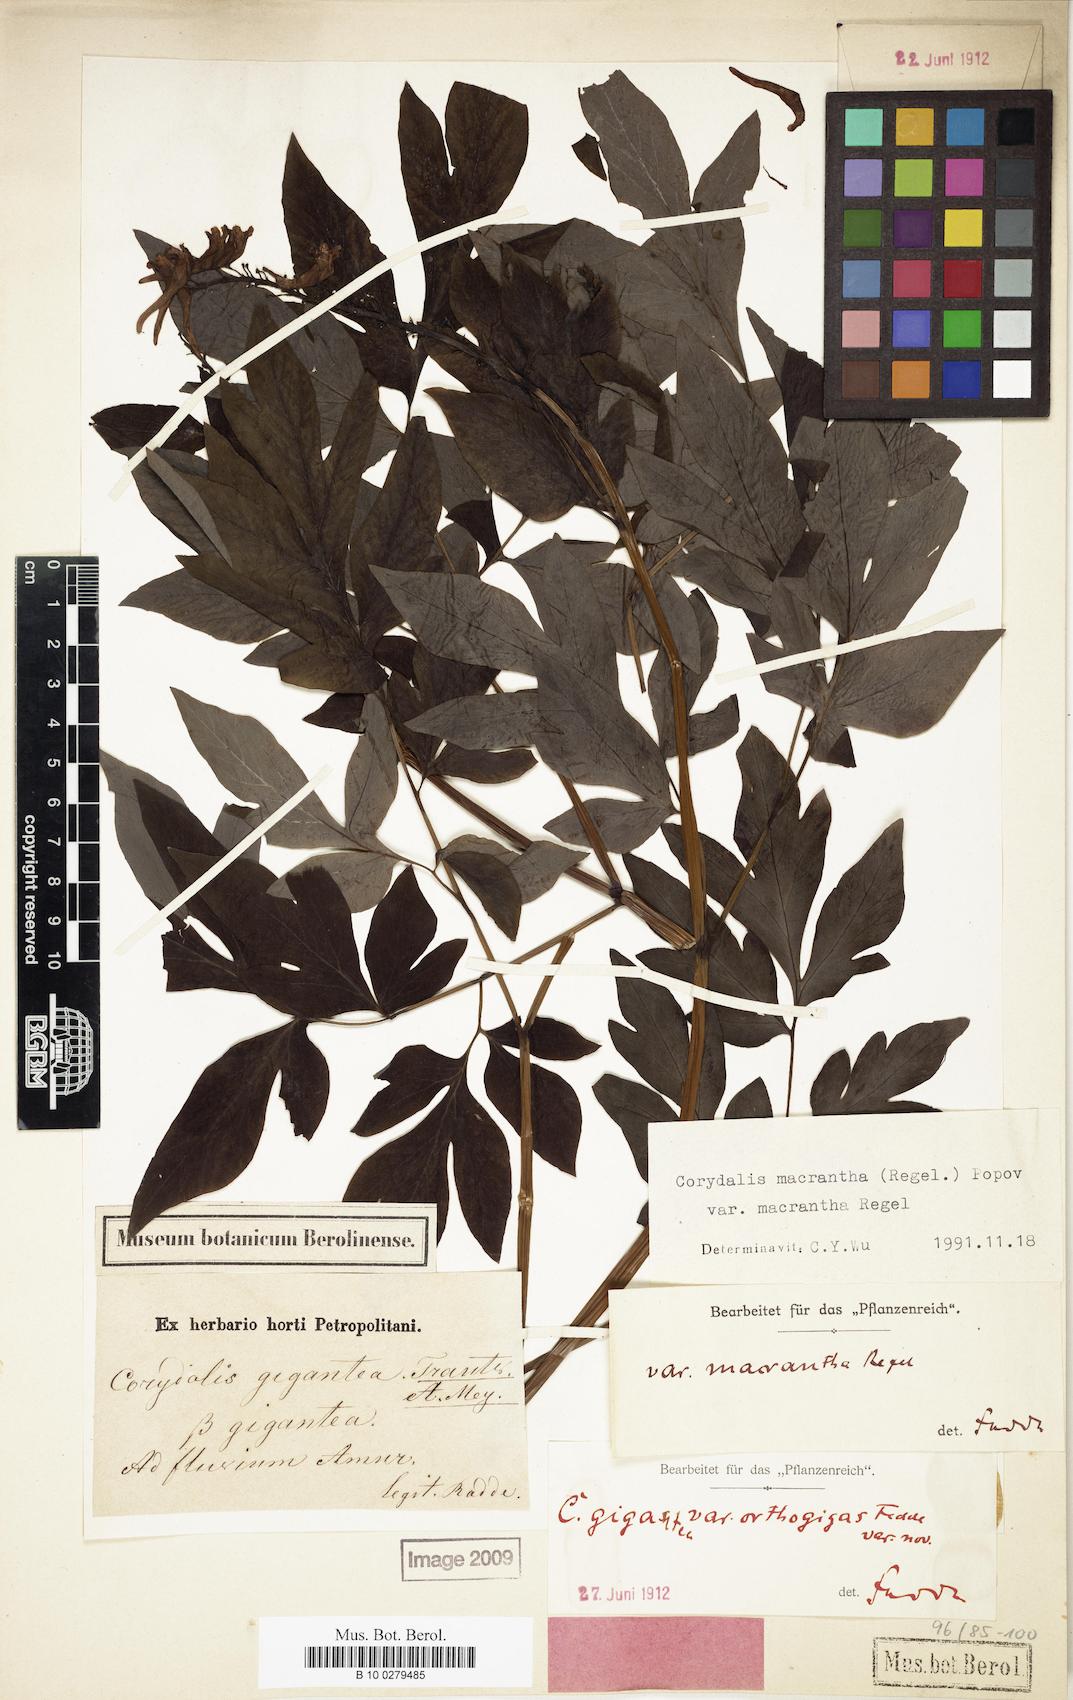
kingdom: Plantae
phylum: Tracheophyta
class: Magnoliopsida
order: Ranunculales
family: Papaveraceae
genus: Corydalis
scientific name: Corydalis gigantea
